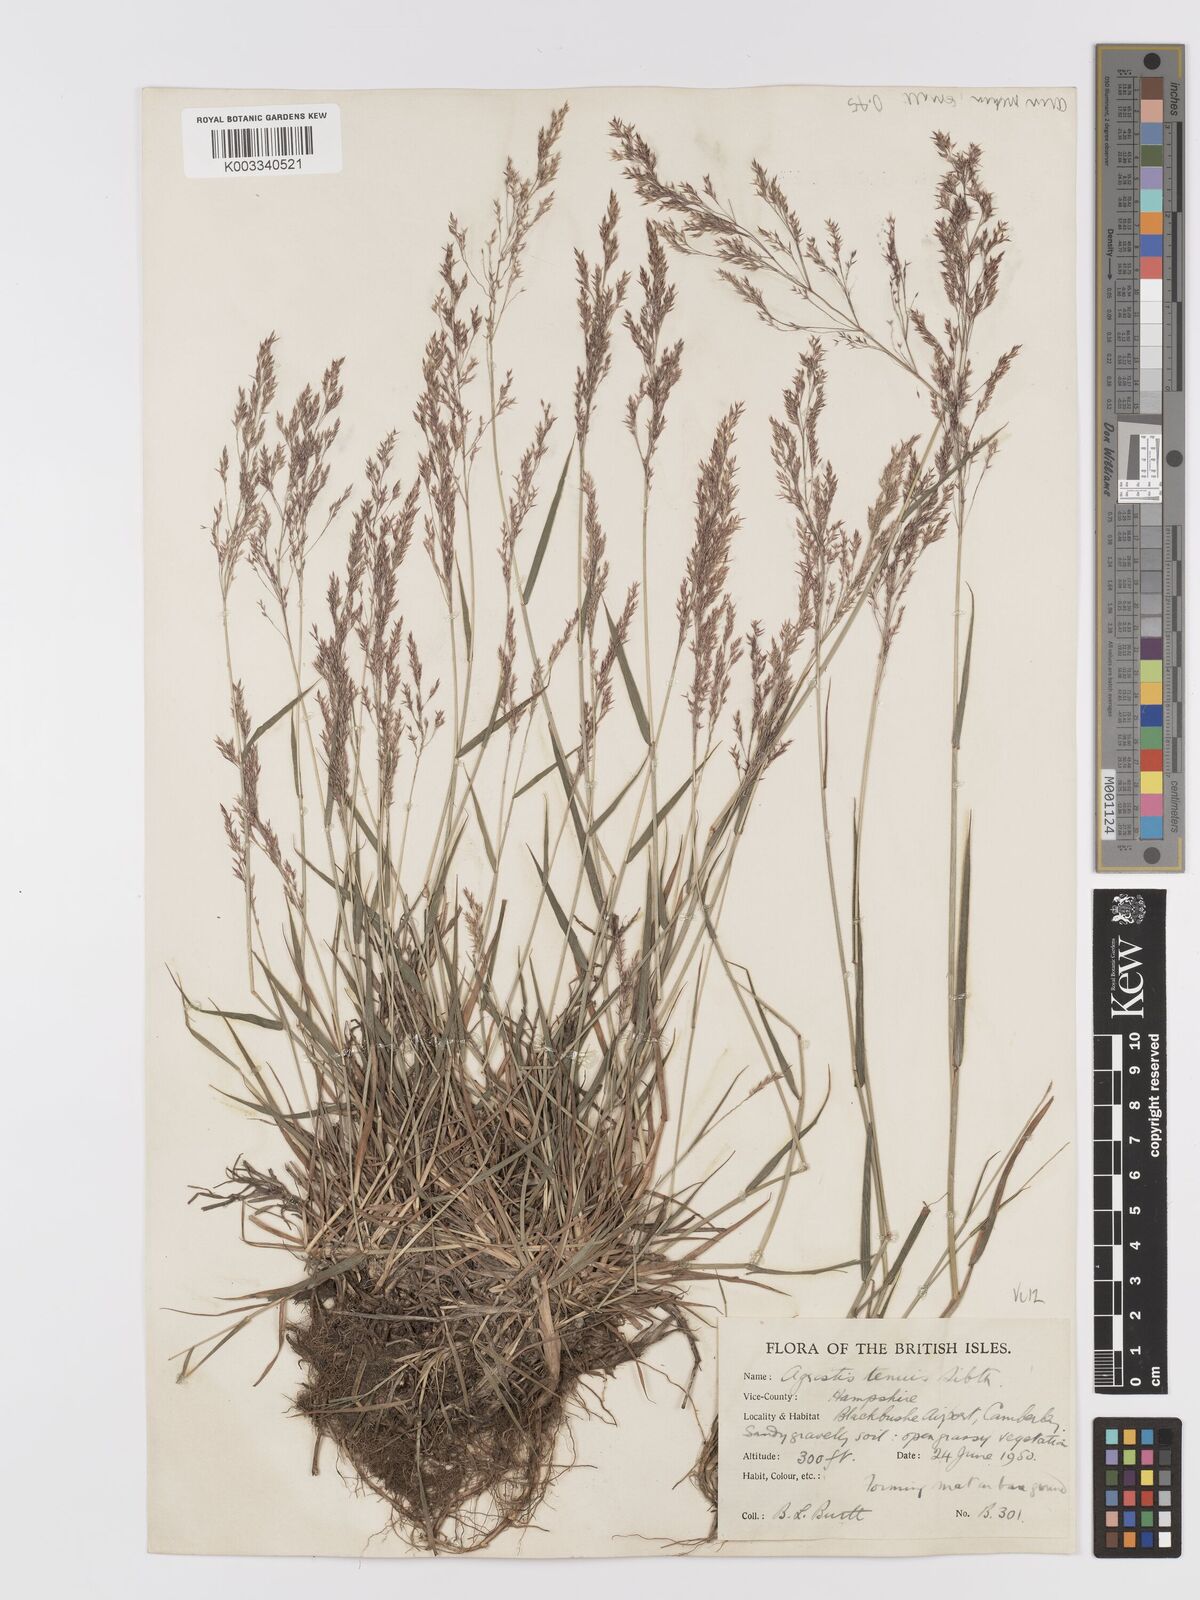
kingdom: Plantae
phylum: Tracheophyta
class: Liliopsida
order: Poales
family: Poaceae
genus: Agrostis
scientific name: Agrostis capillaris
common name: Colonial bentgrass
